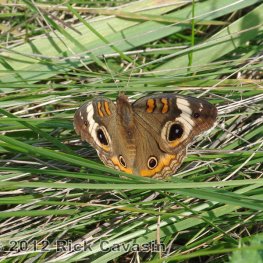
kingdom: Animalia
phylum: Arthropoda
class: Insecta
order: Lepidoptera
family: Nymphalidae
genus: Junonia
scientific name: Junonia coenia
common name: Common Buckeye
